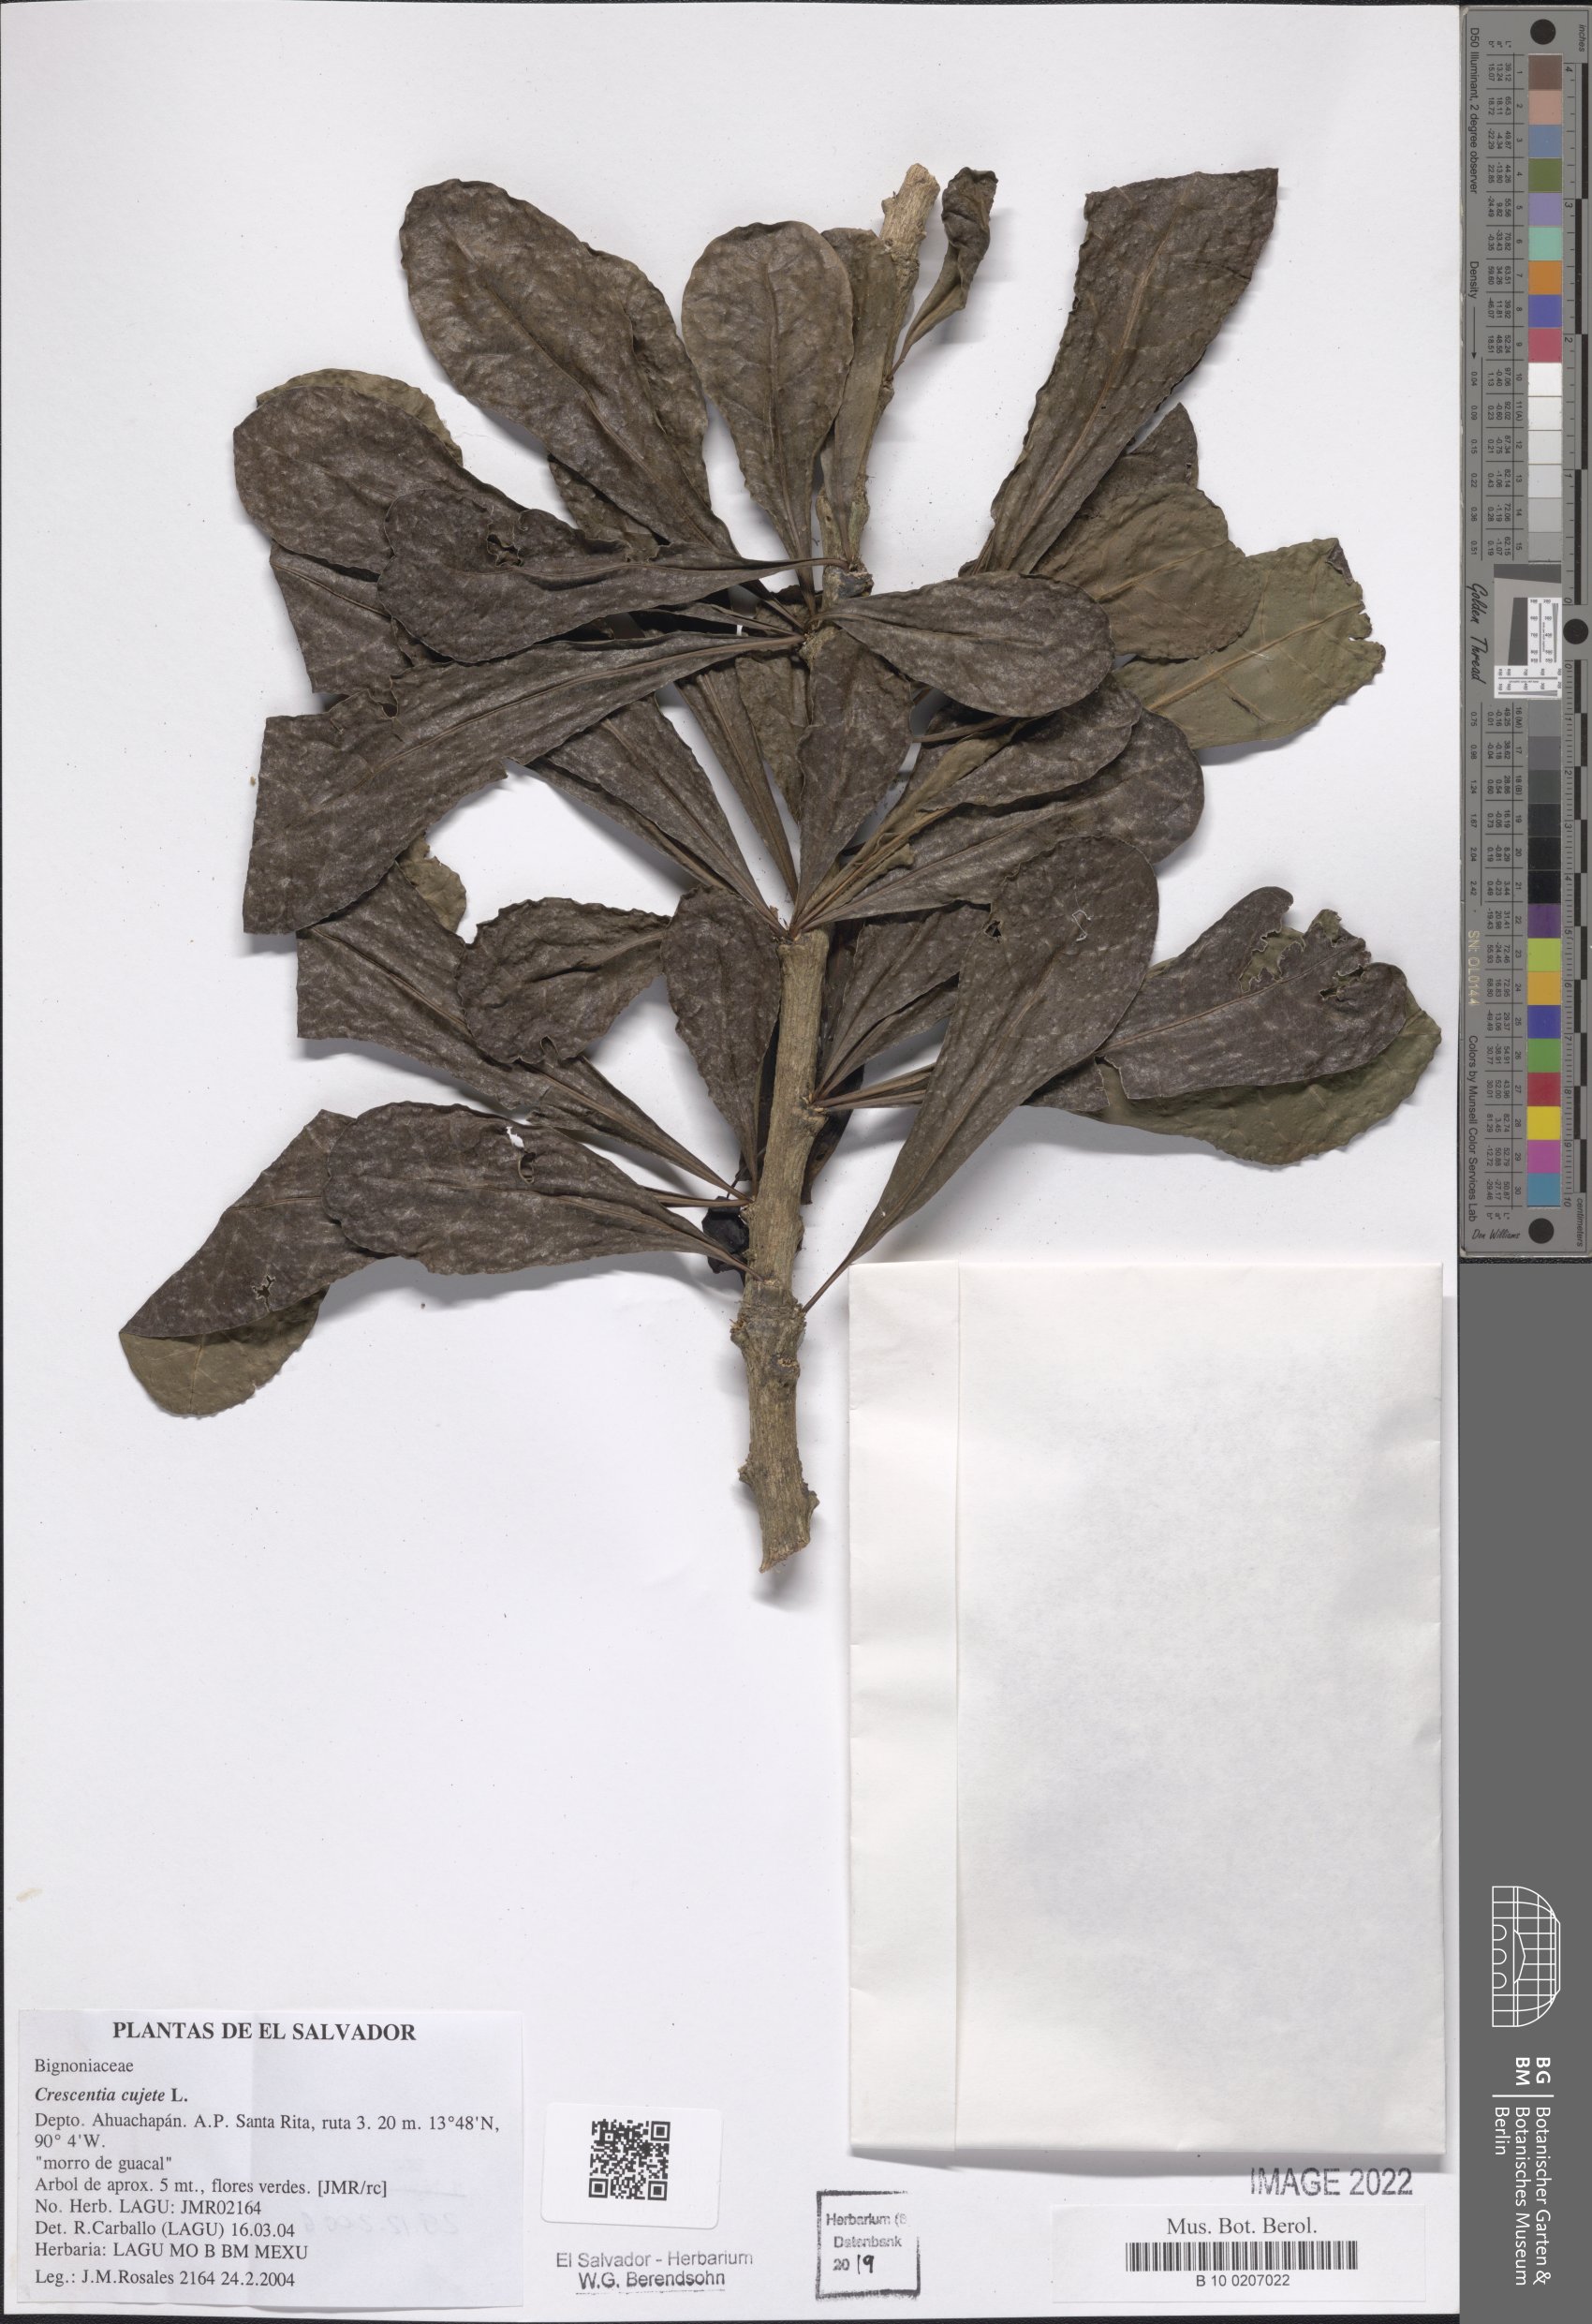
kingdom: Plantae
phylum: Tracheophyta
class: Magnoliopsida
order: Lamiales
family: Bignoniaceae
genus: Crescentia
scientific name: Crescentia cujete
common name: Calabash
